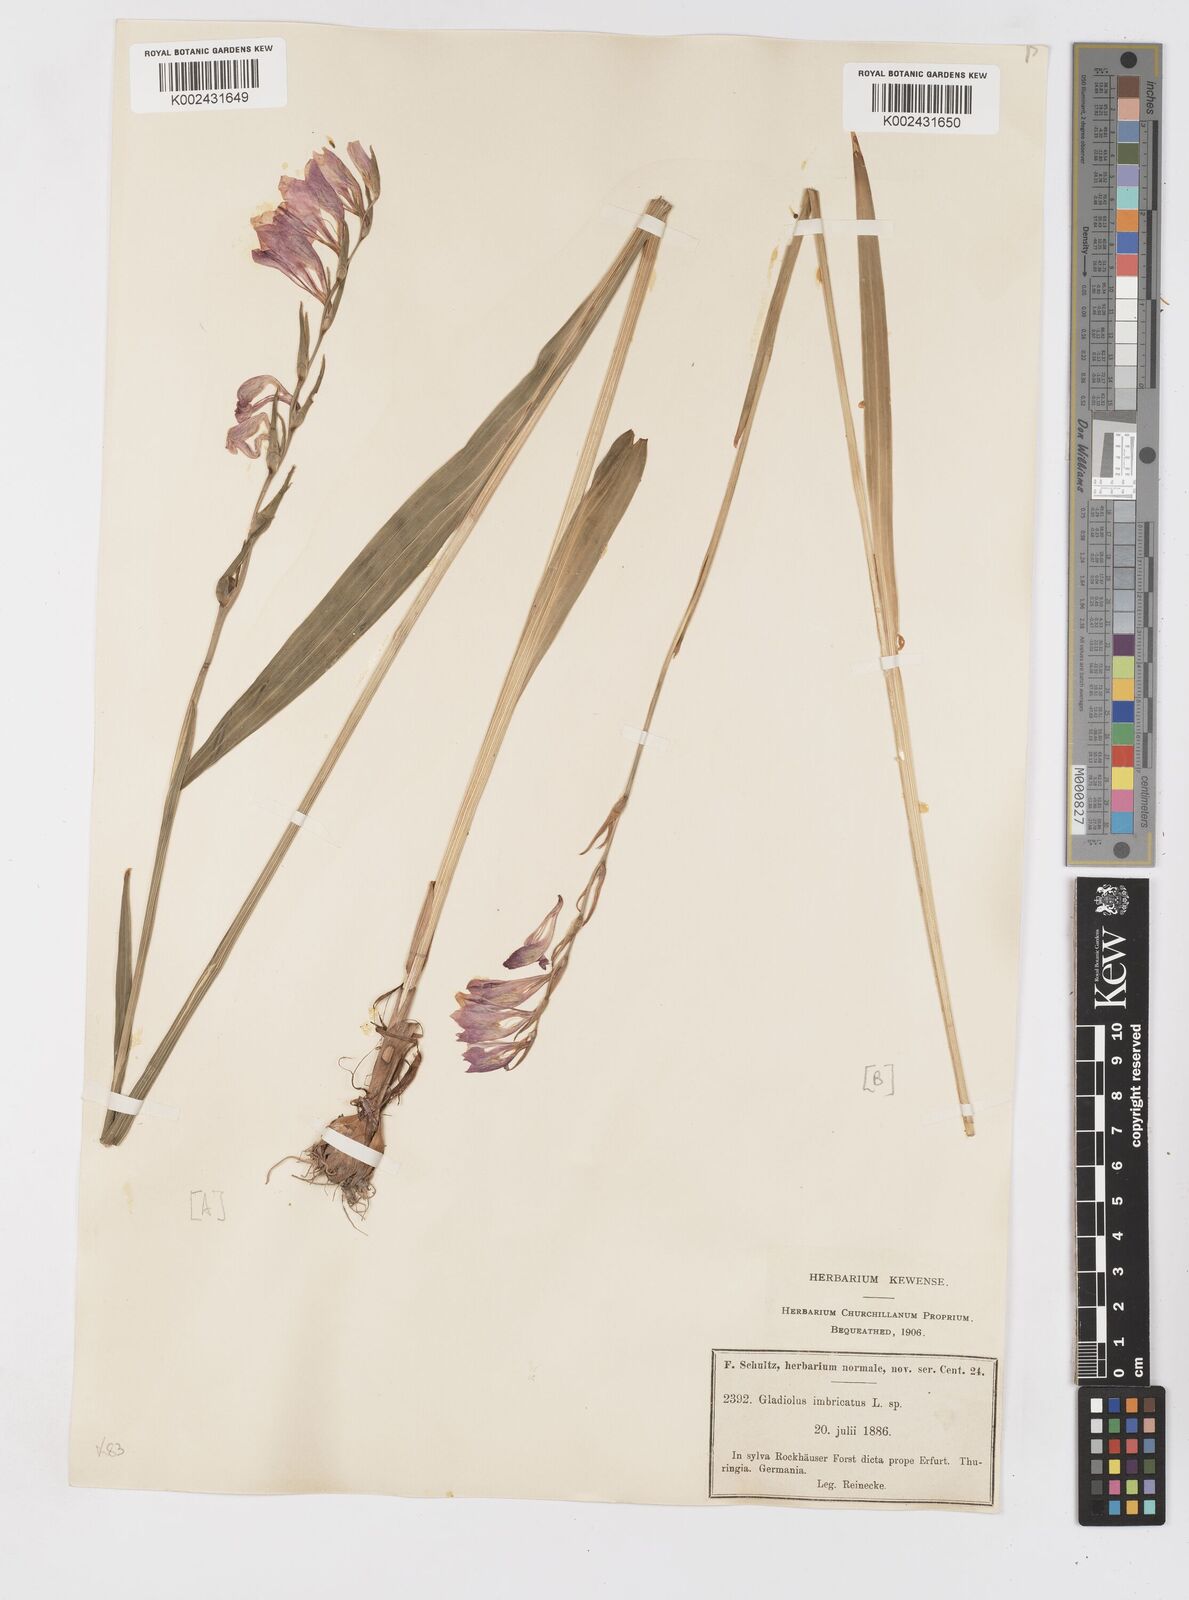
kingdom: Plantae
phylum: Tracheophyta
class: Liliopsida
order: Asparagales
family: Iridaceae
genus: Gladiolus
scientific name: Gladiolus imbricatus
